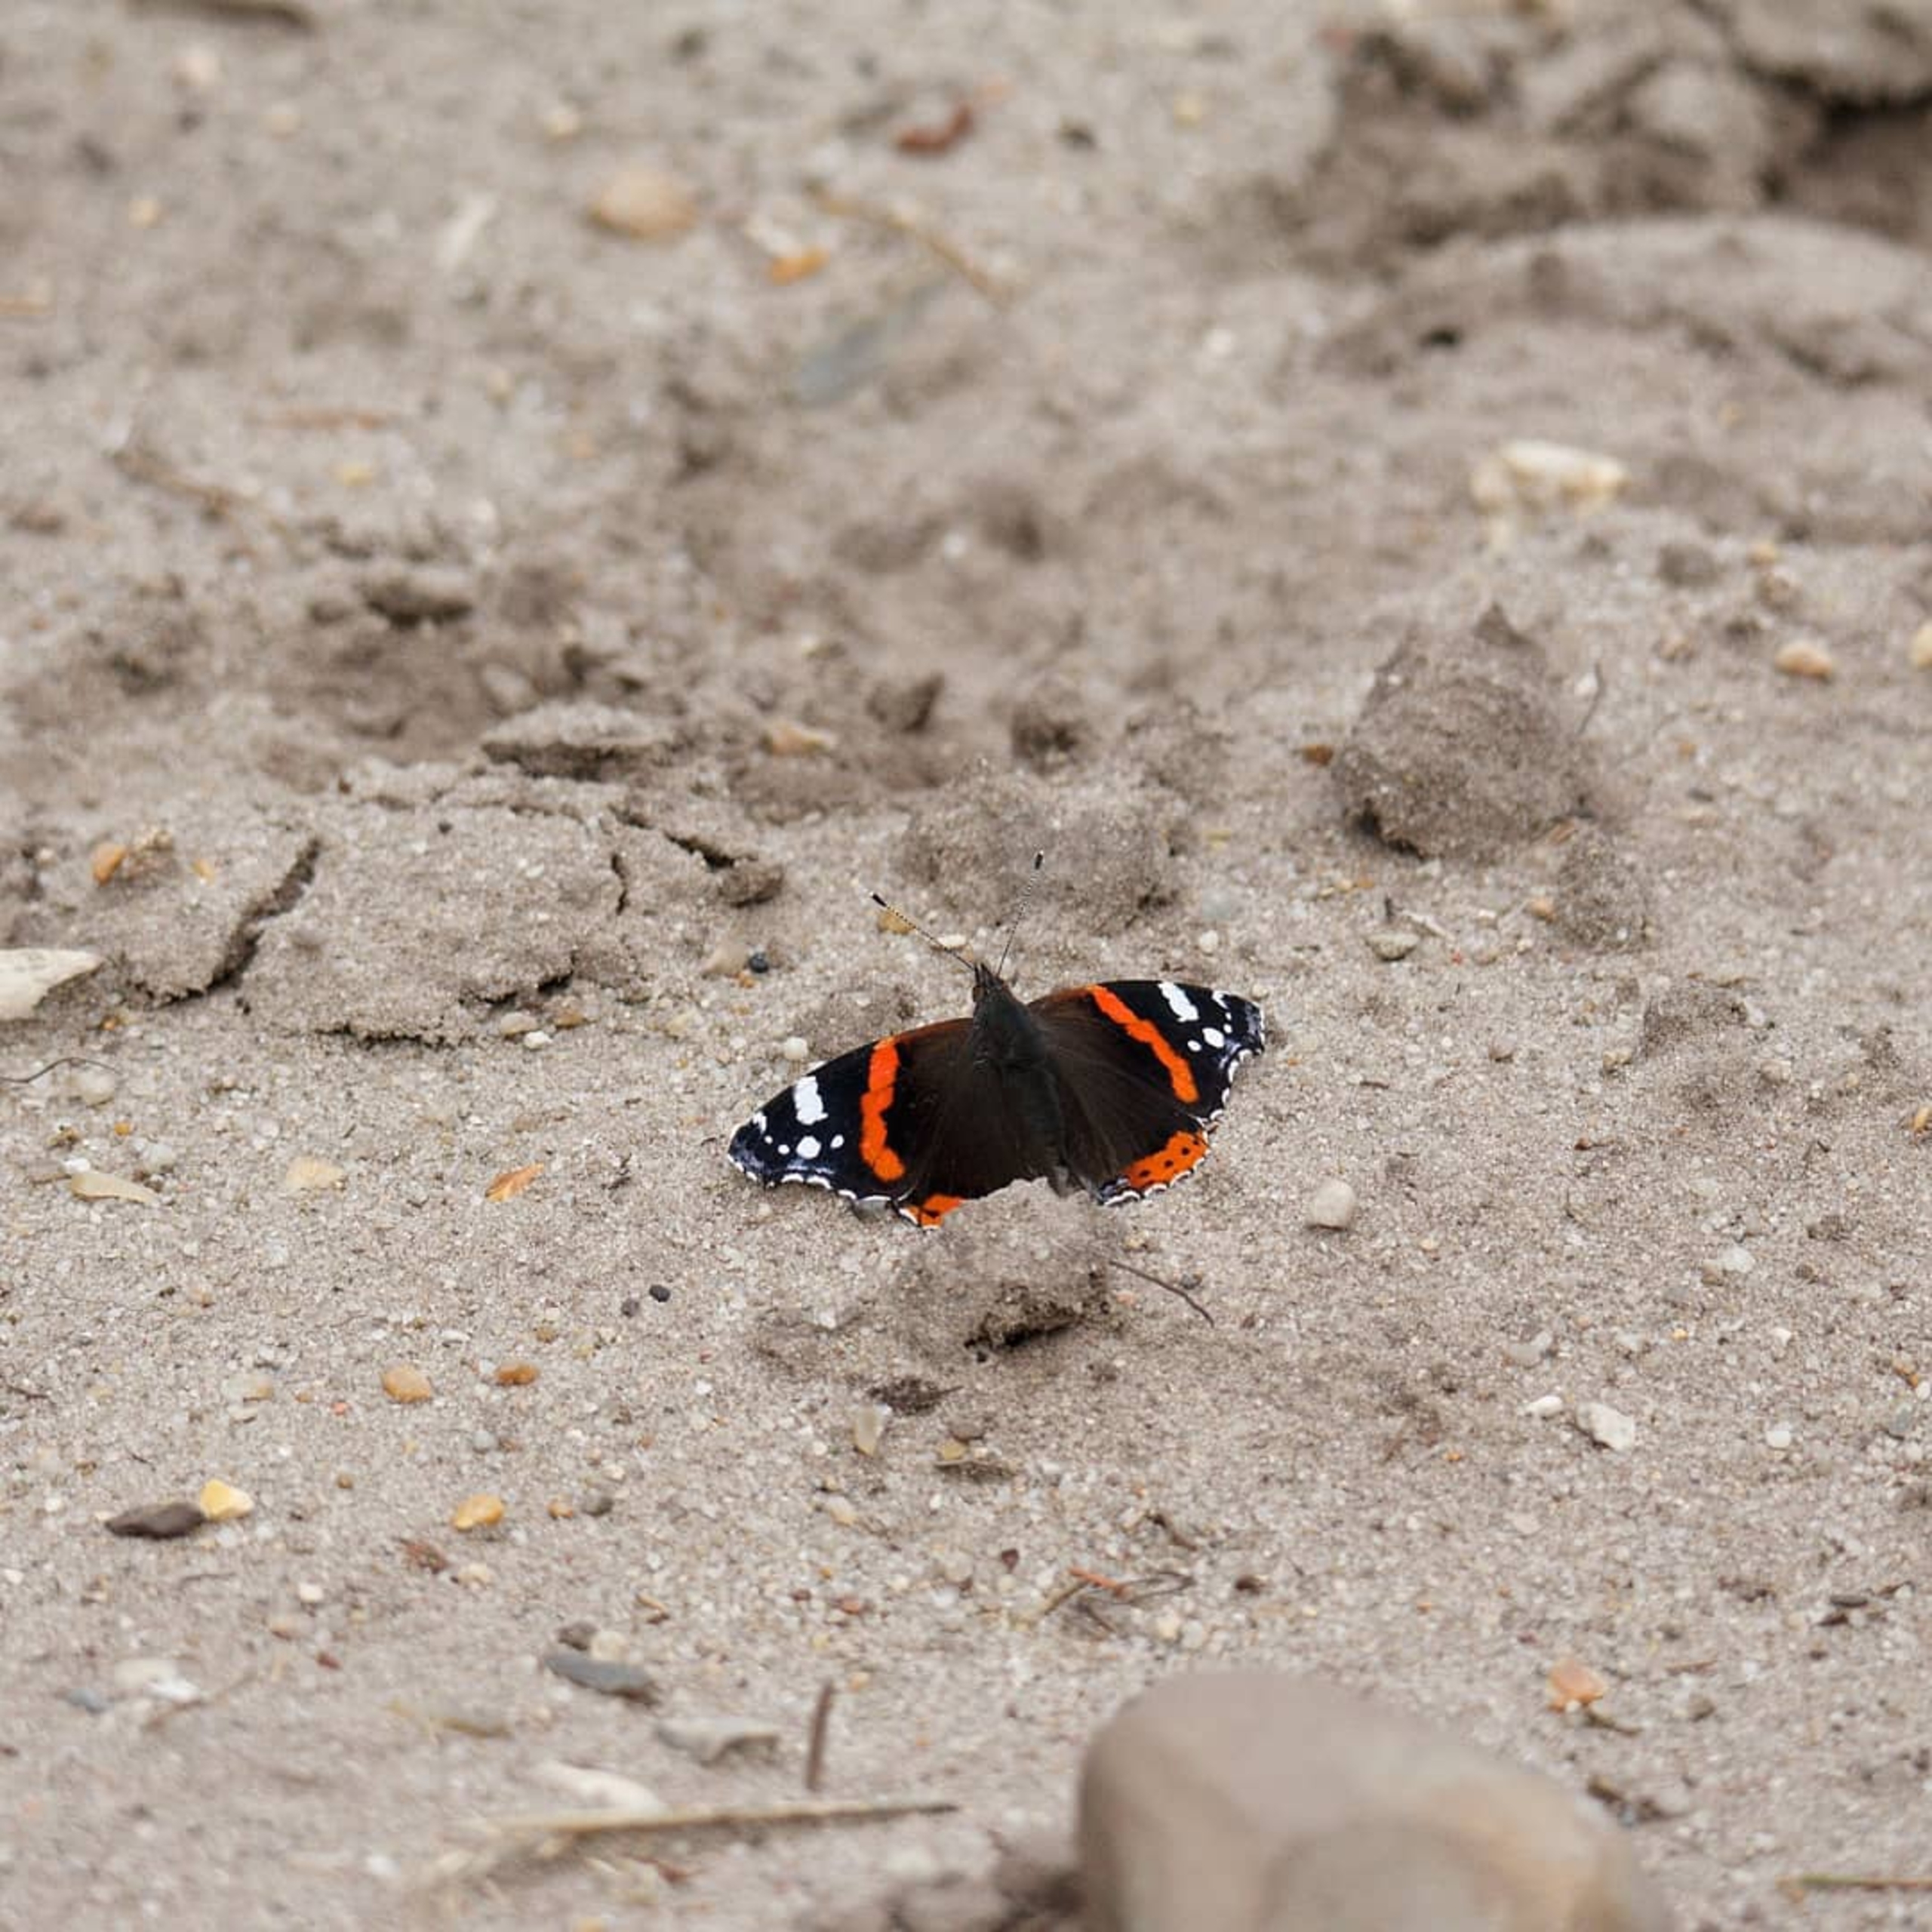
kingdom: Animalia
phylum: Arthropoda
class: Insecta
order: Lepidoptera
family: Nymphalidae
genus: Vanessa
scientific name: Vanessa atalanta
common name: Admiral
